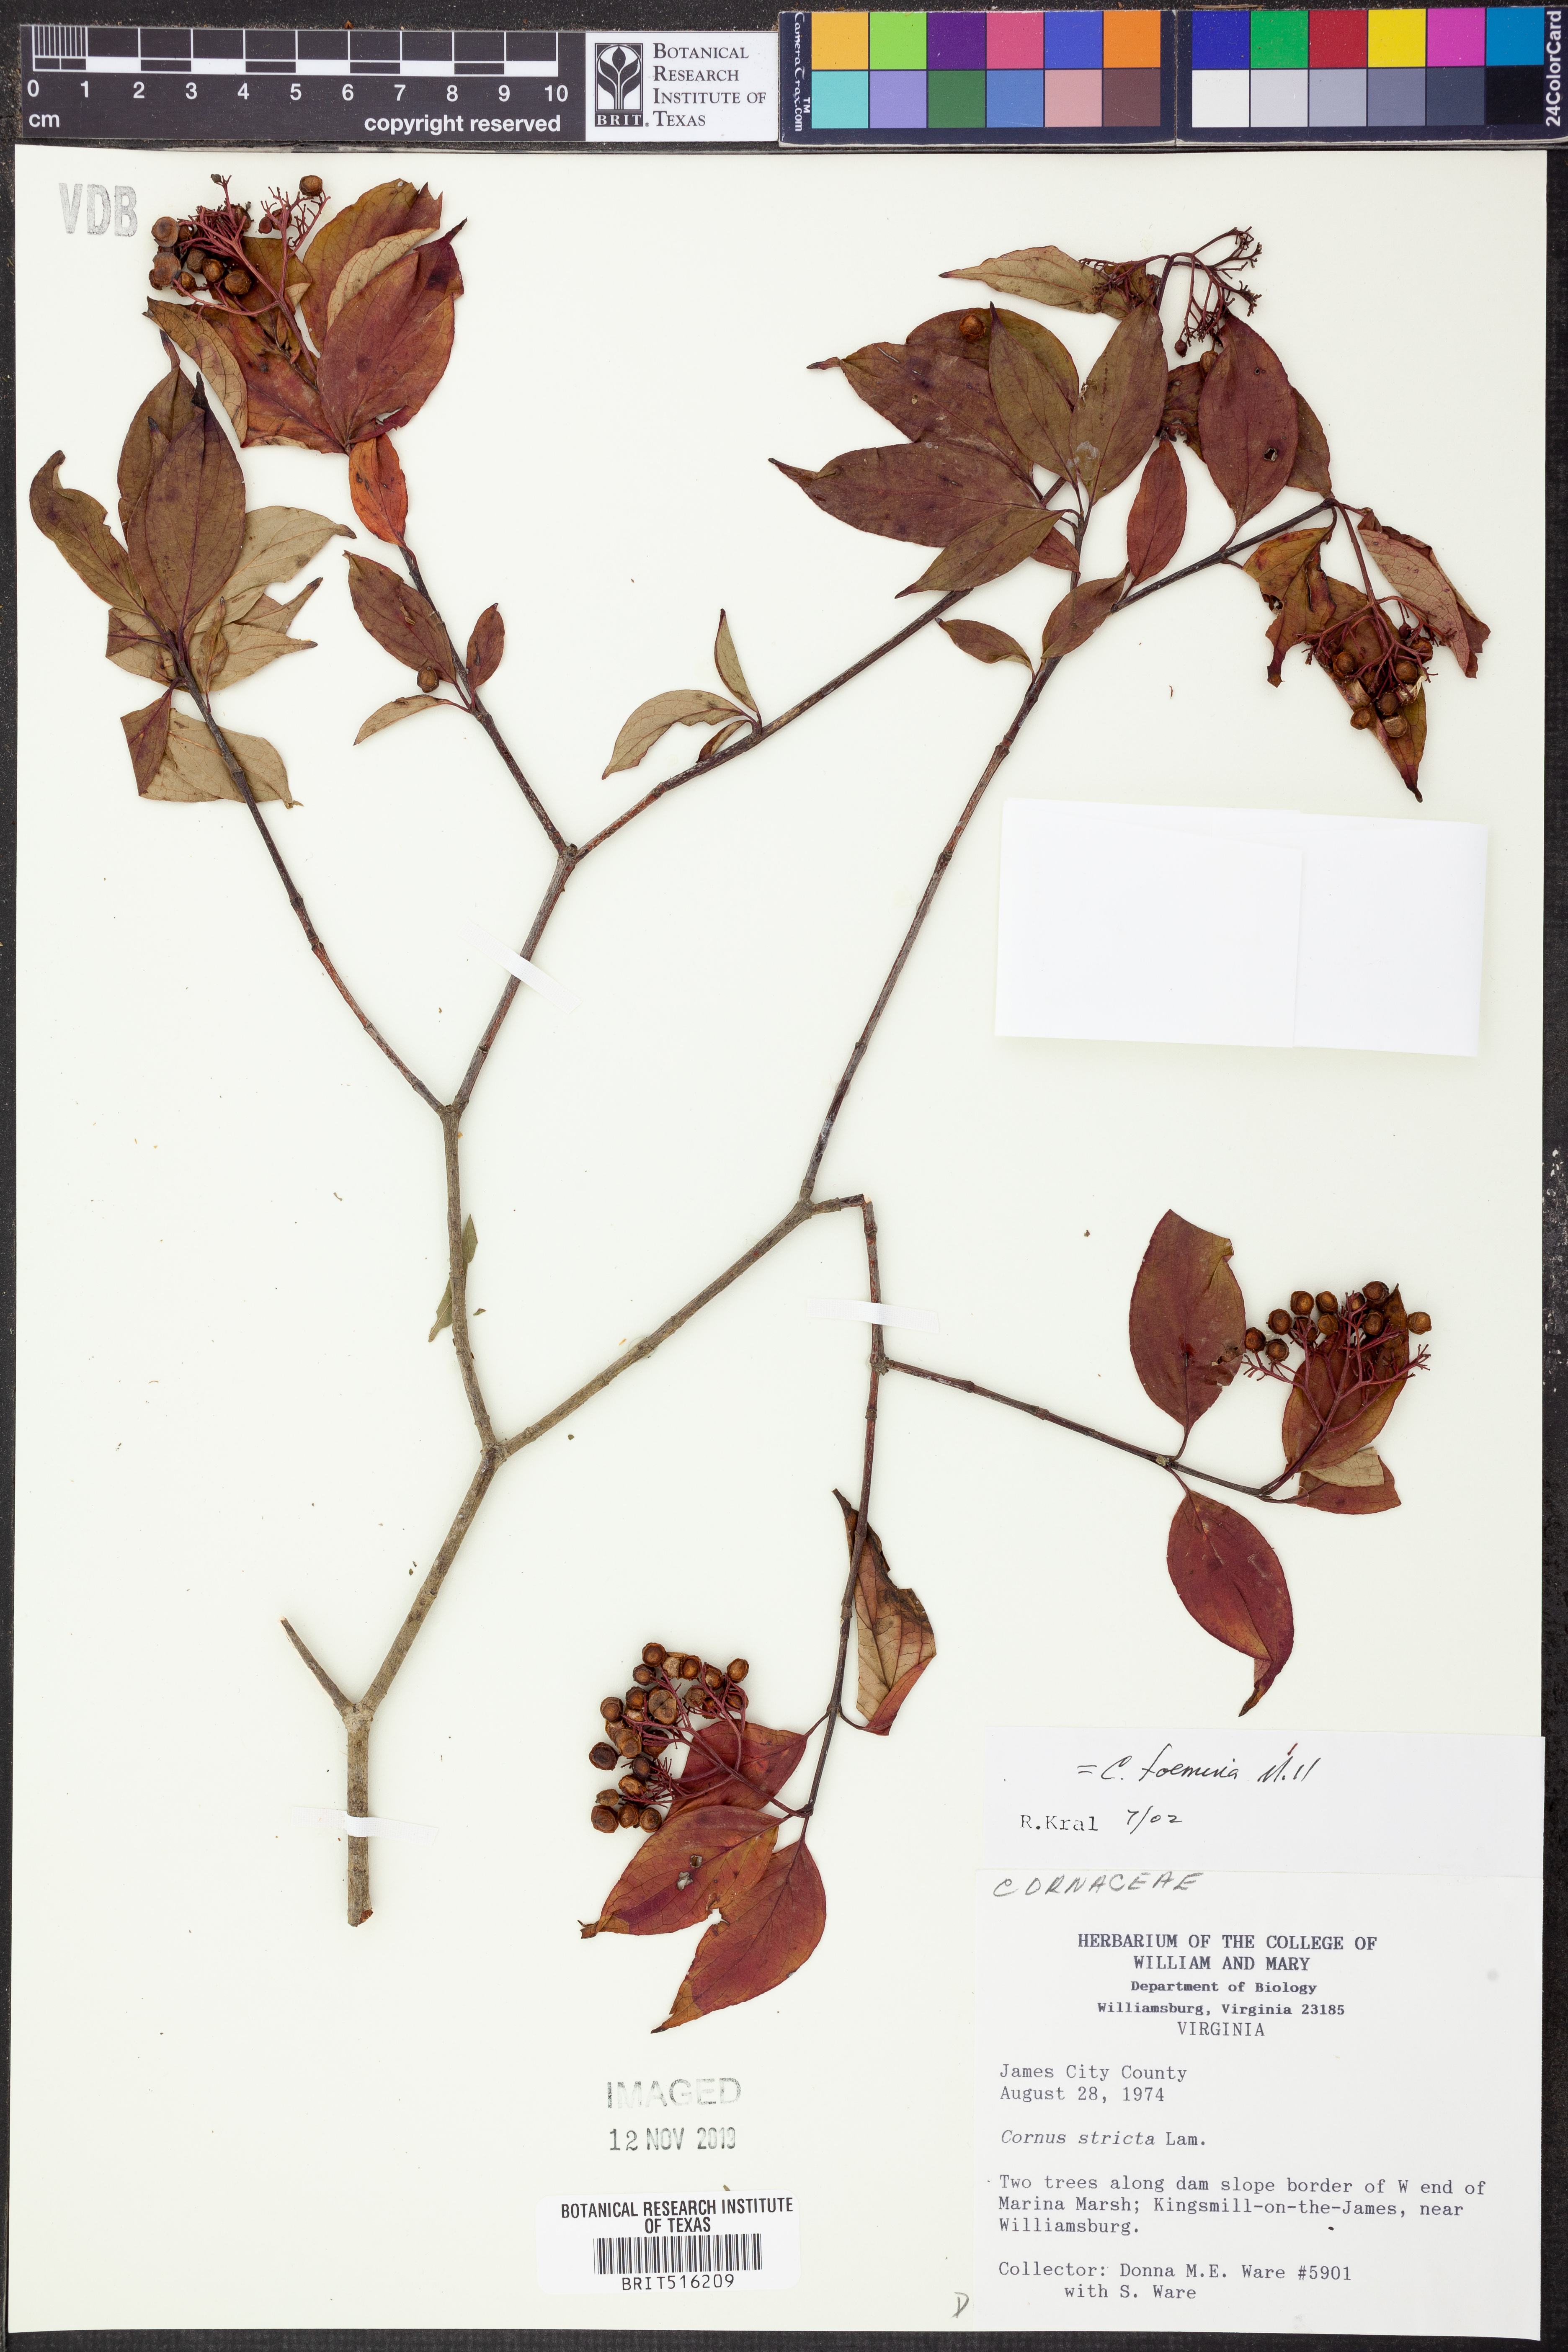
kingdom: Plantae
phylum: Tracheophyta
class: Magnoliopsida
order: Cornales
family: Cornaceae
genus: Cornus
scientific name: Cornus foemina
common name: Swamp dogwood
